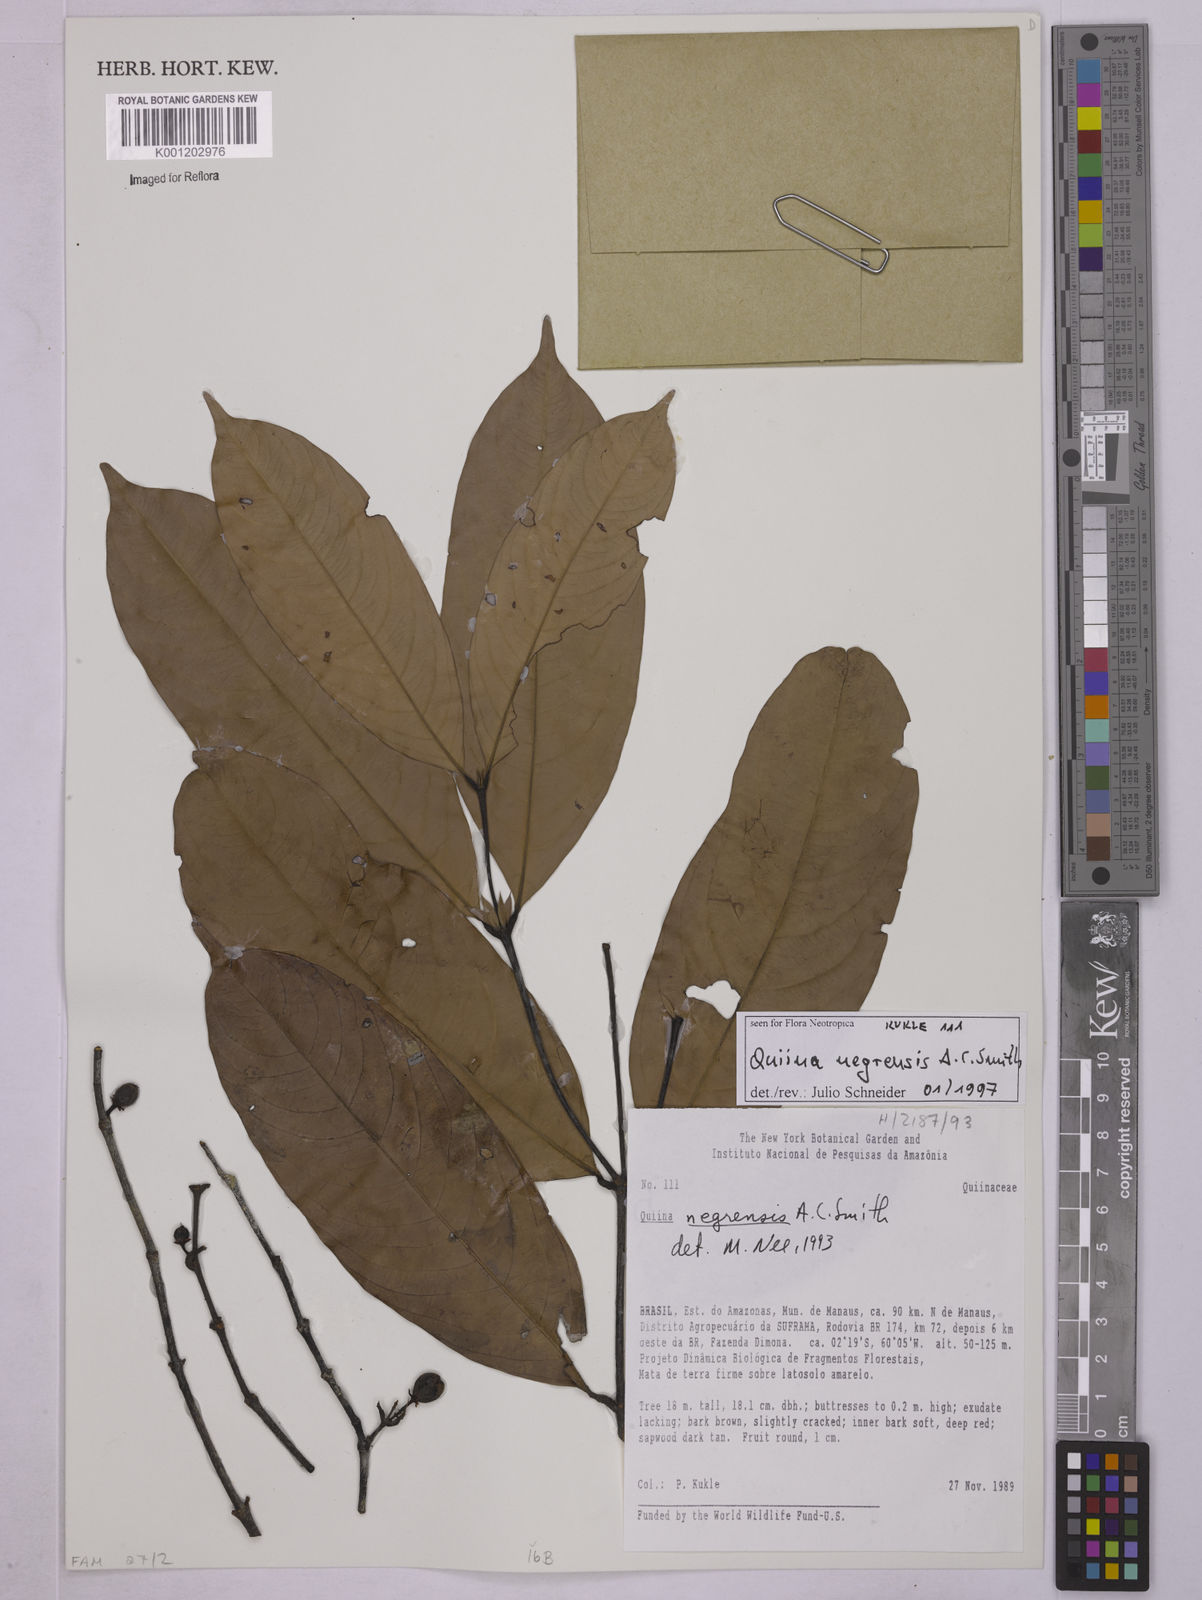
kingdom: Plantae
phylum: Tracheophyta
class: Magnoliopsida
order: Malpighiales
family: Quiinaceae
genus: Quiina
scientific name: Quiina negrensis
